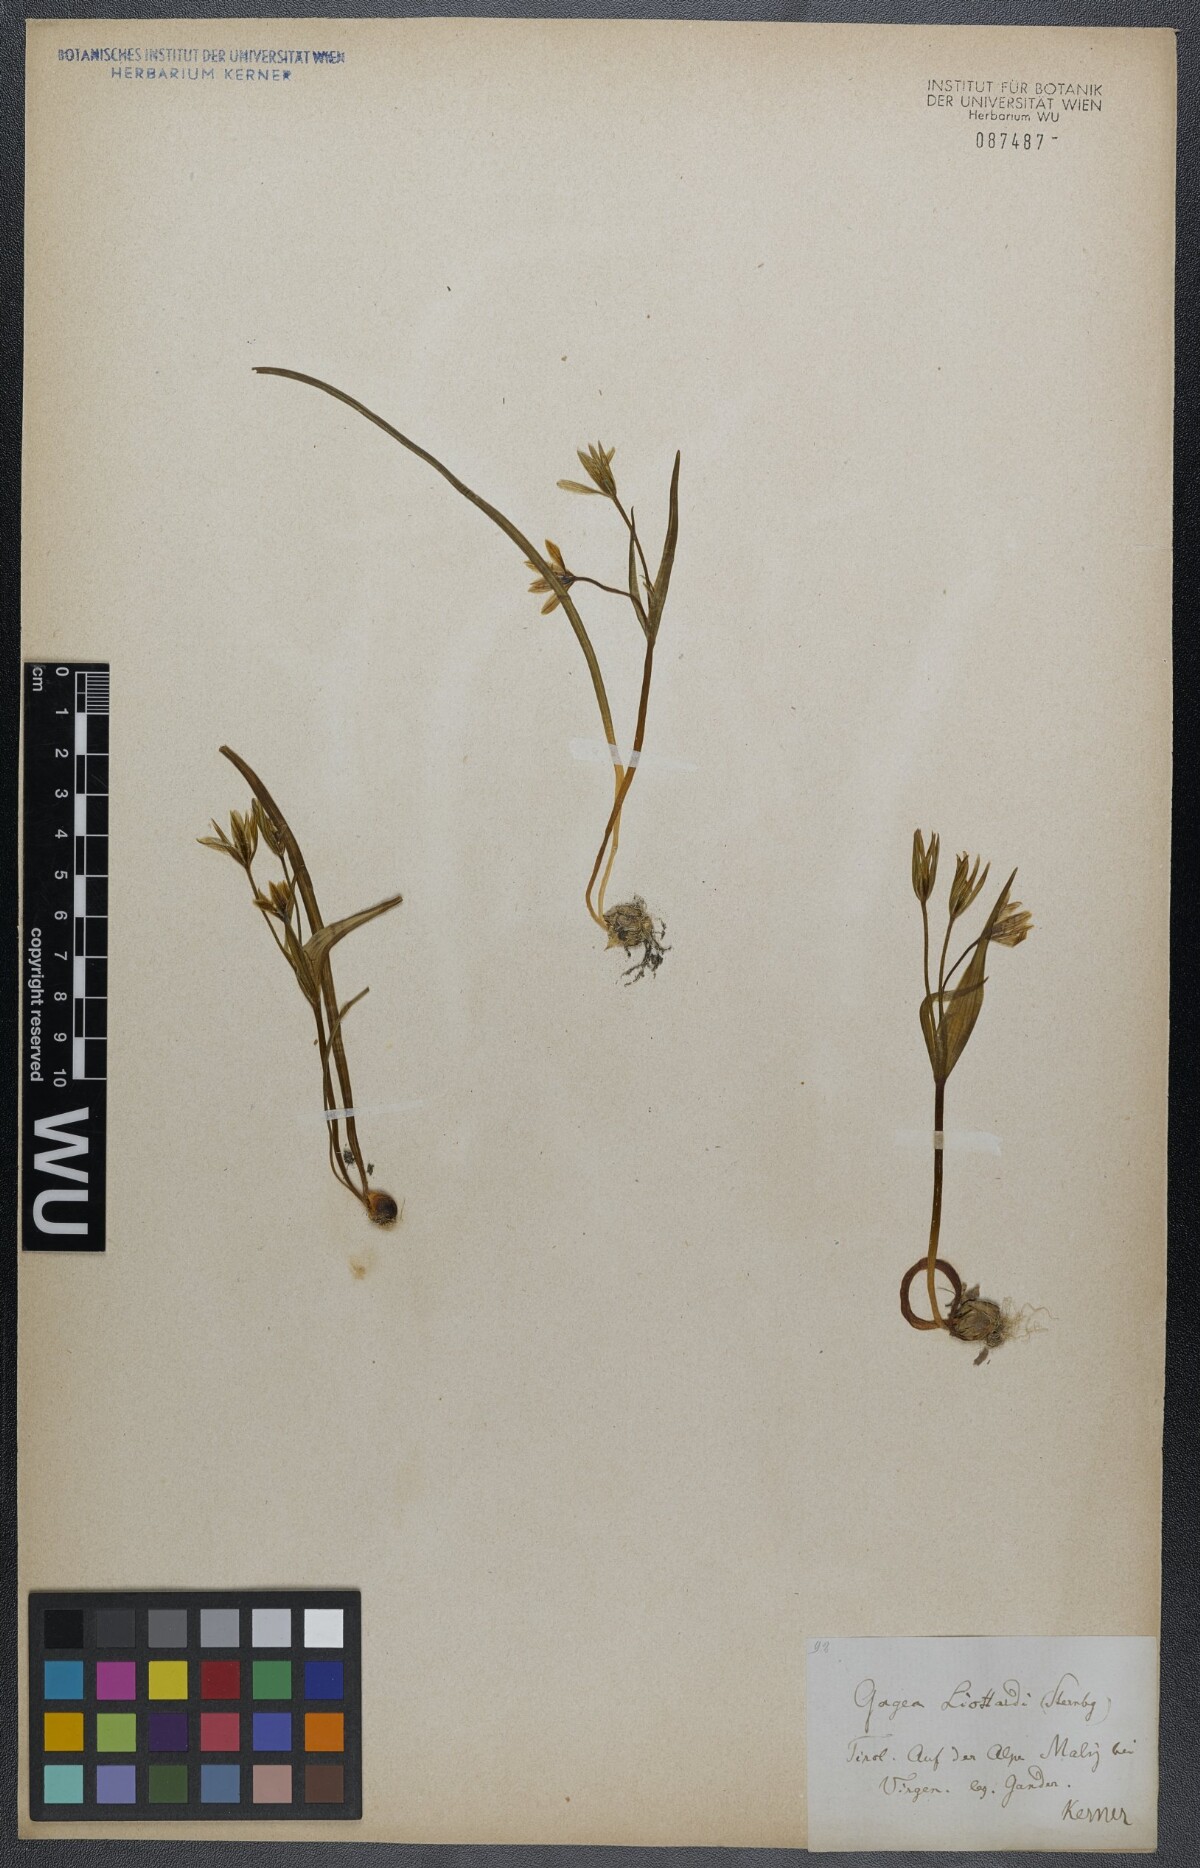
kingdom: Plantae
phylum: Tracheophyta
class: Liliopsida
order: Liliales
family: Liliaceae
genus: Gagea
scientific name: Gagea fragifera
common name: Lily
